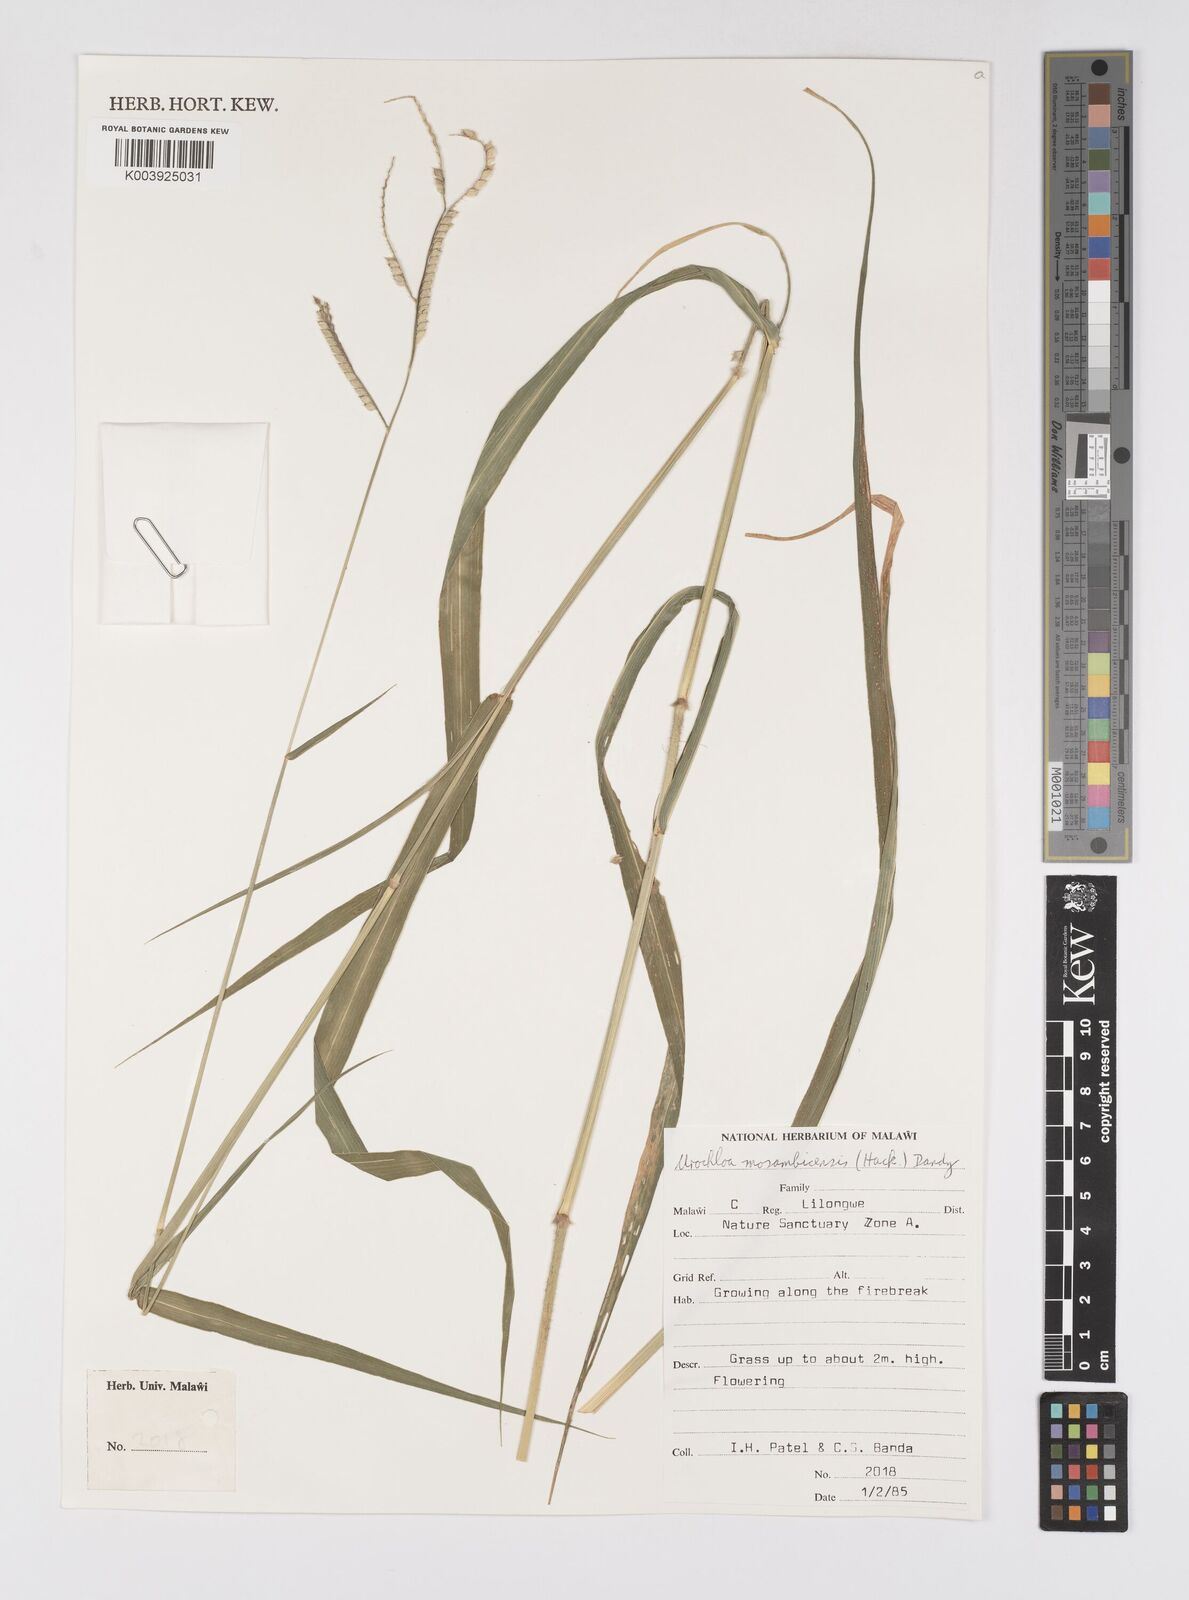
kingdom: Plantae
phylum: Tracheophyta
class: Liliopsida
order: Poales
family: Poaceae
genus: Urochloa
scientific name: Urochloa trichopus
